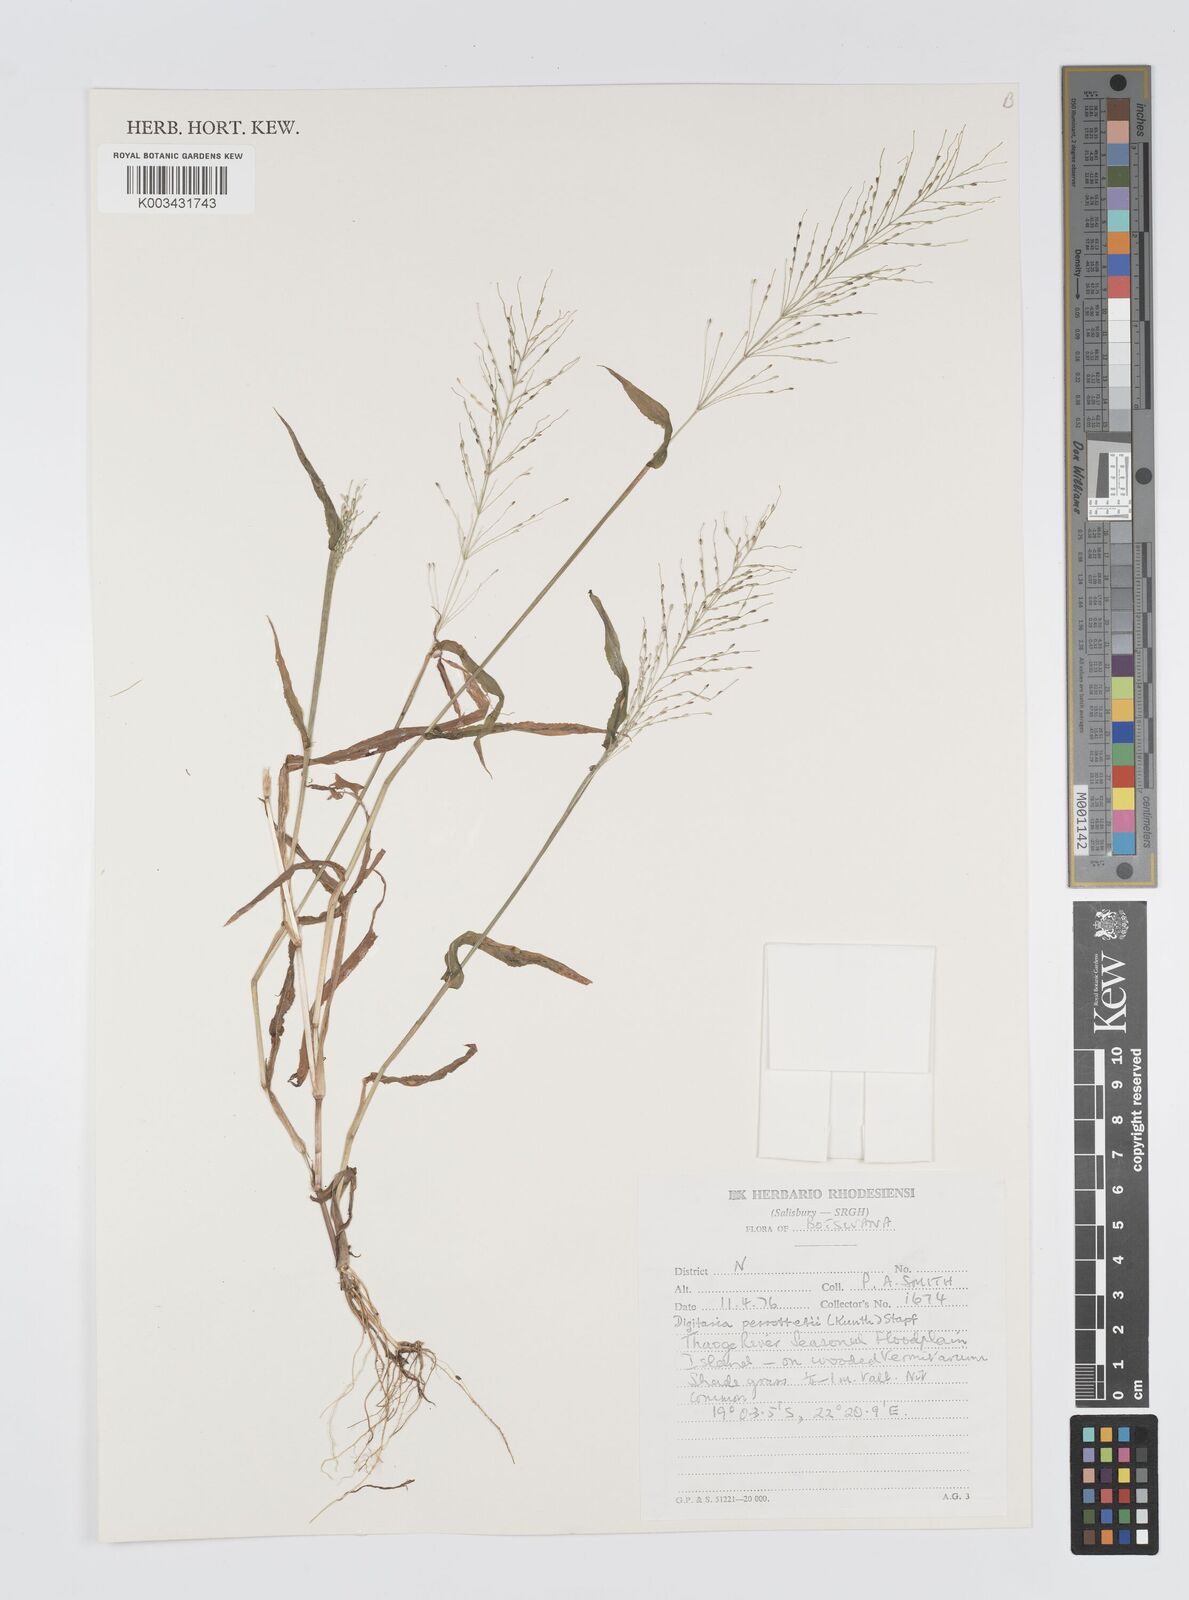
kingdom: Plantae
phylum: Tracheophyta
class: Liliopsida
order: Poales
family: Poaceae
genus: Digitaria
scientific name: Digitaria perrottetii
